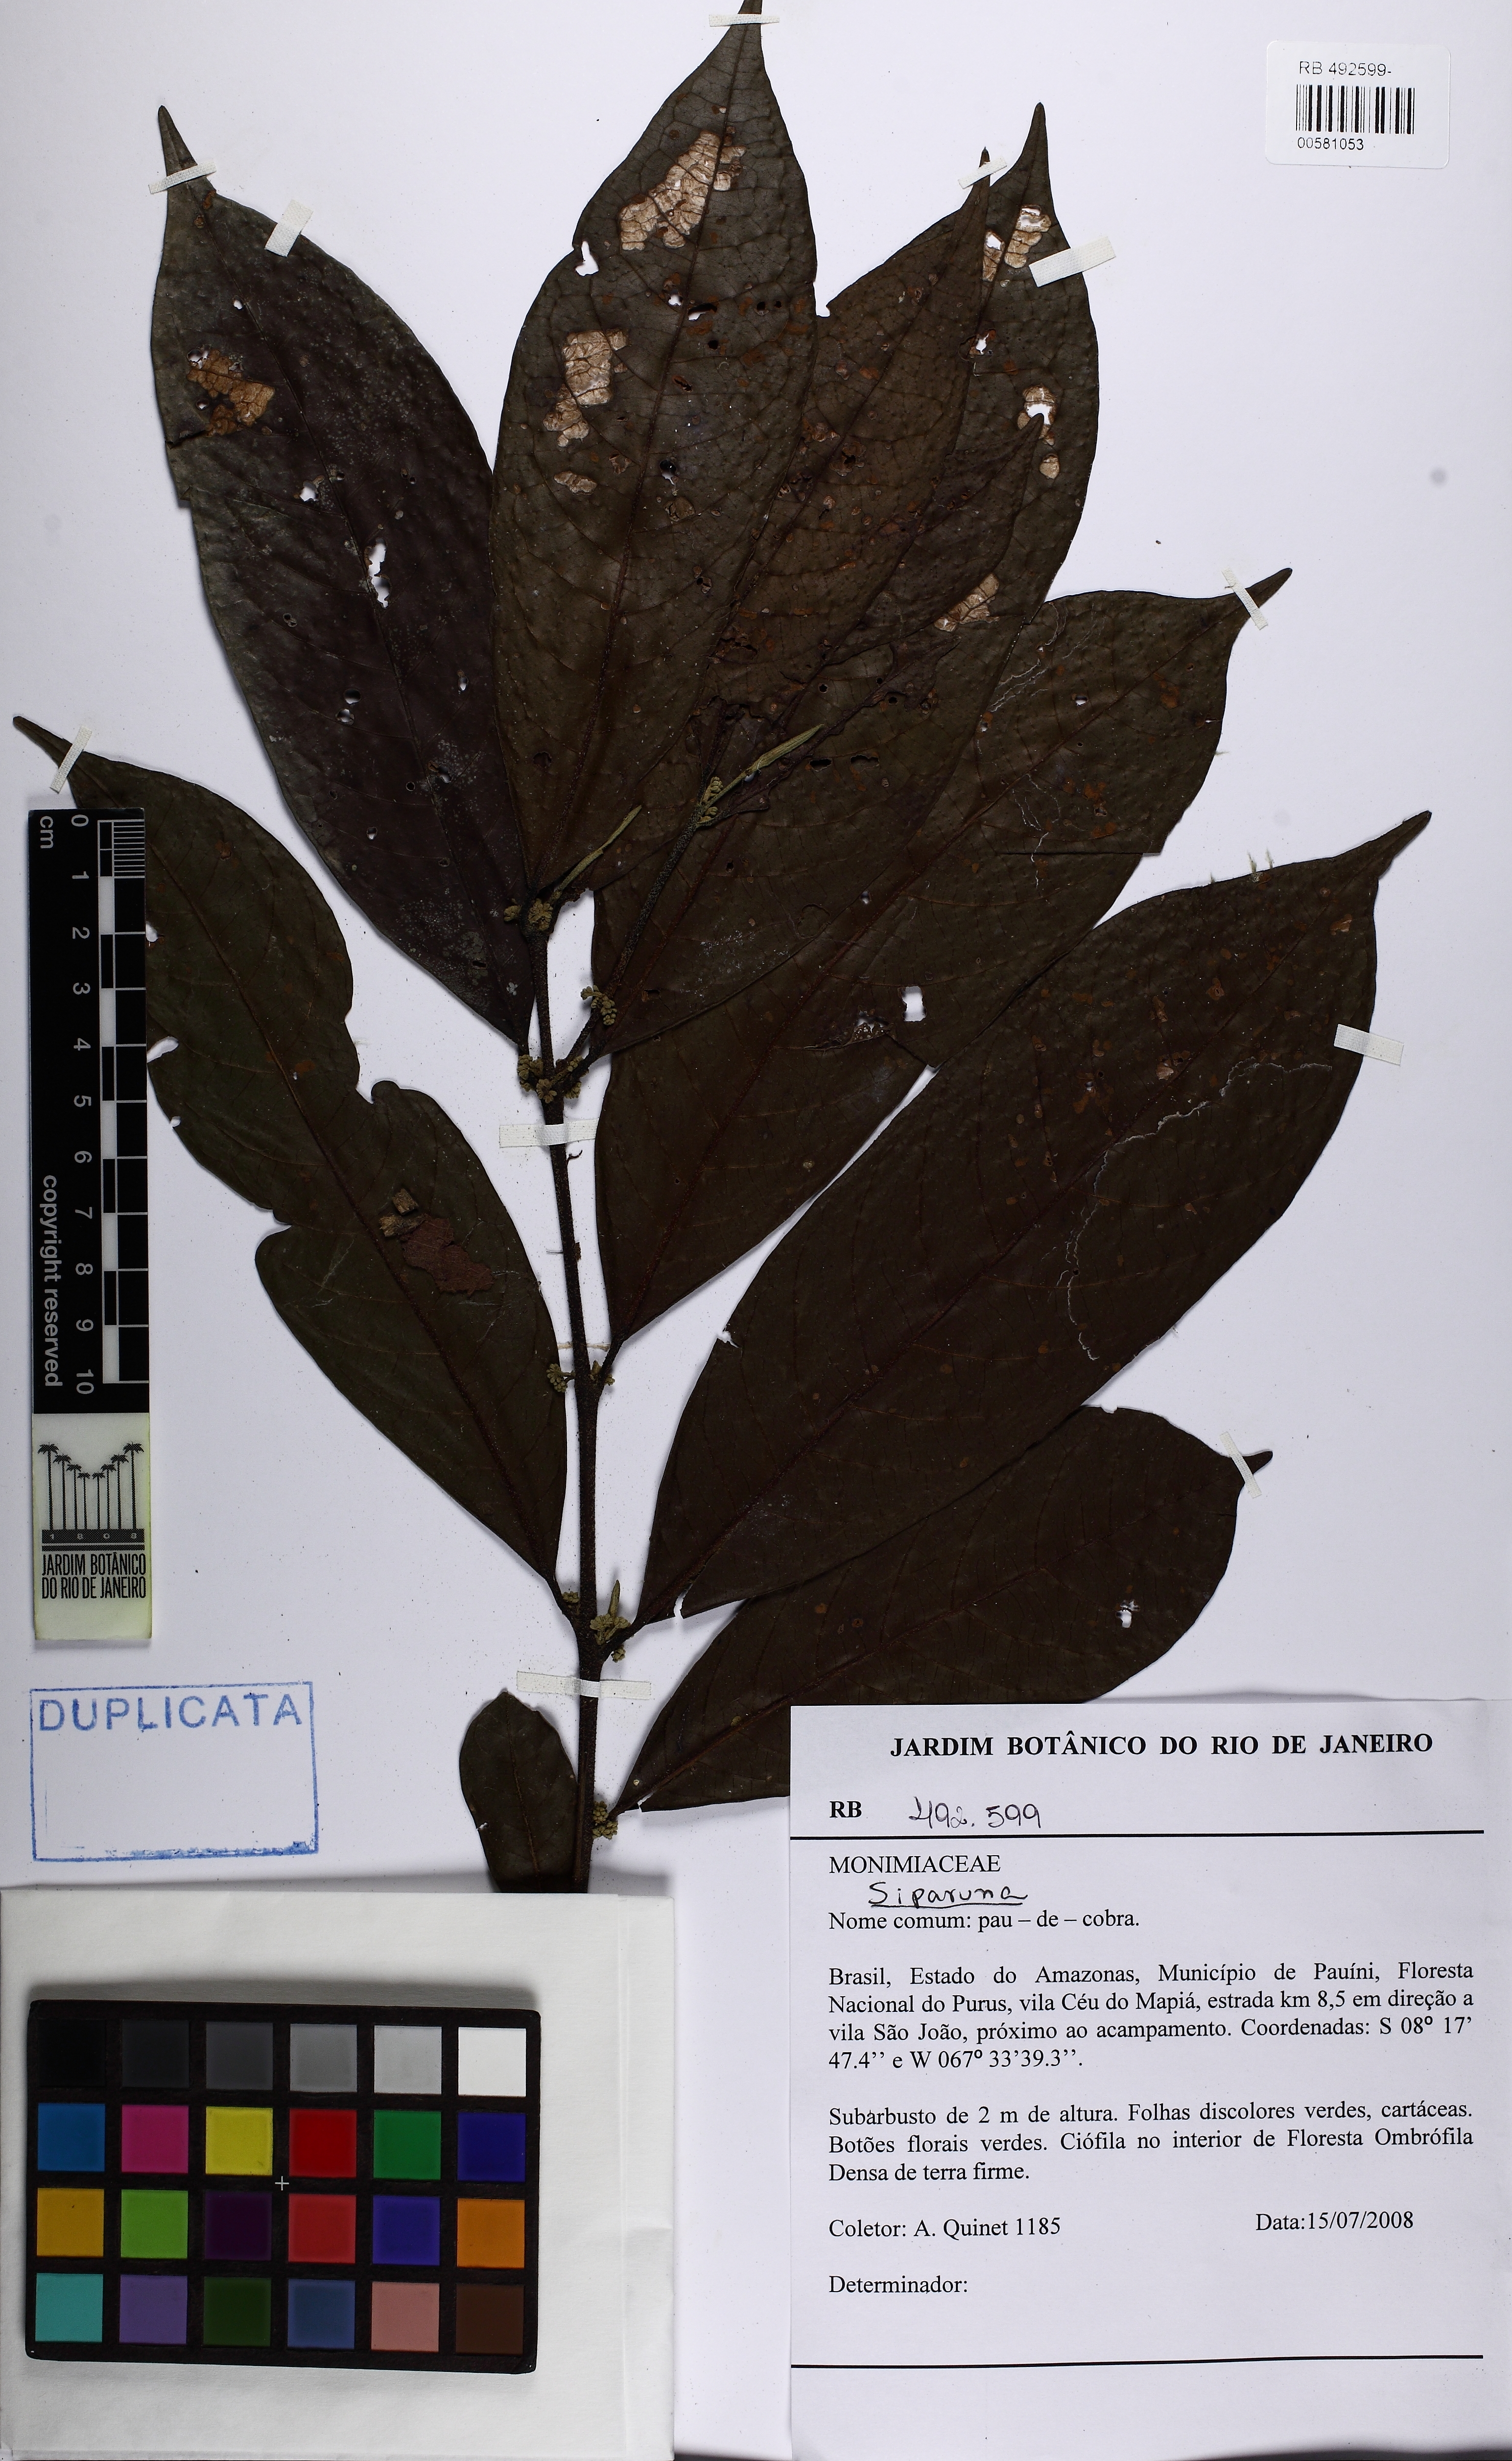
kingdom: Plantae
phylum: Tracheophyta
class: Magnoliopsida
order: Laurales
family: Siparunaceae
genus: Siparuna
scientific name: Siparuna
